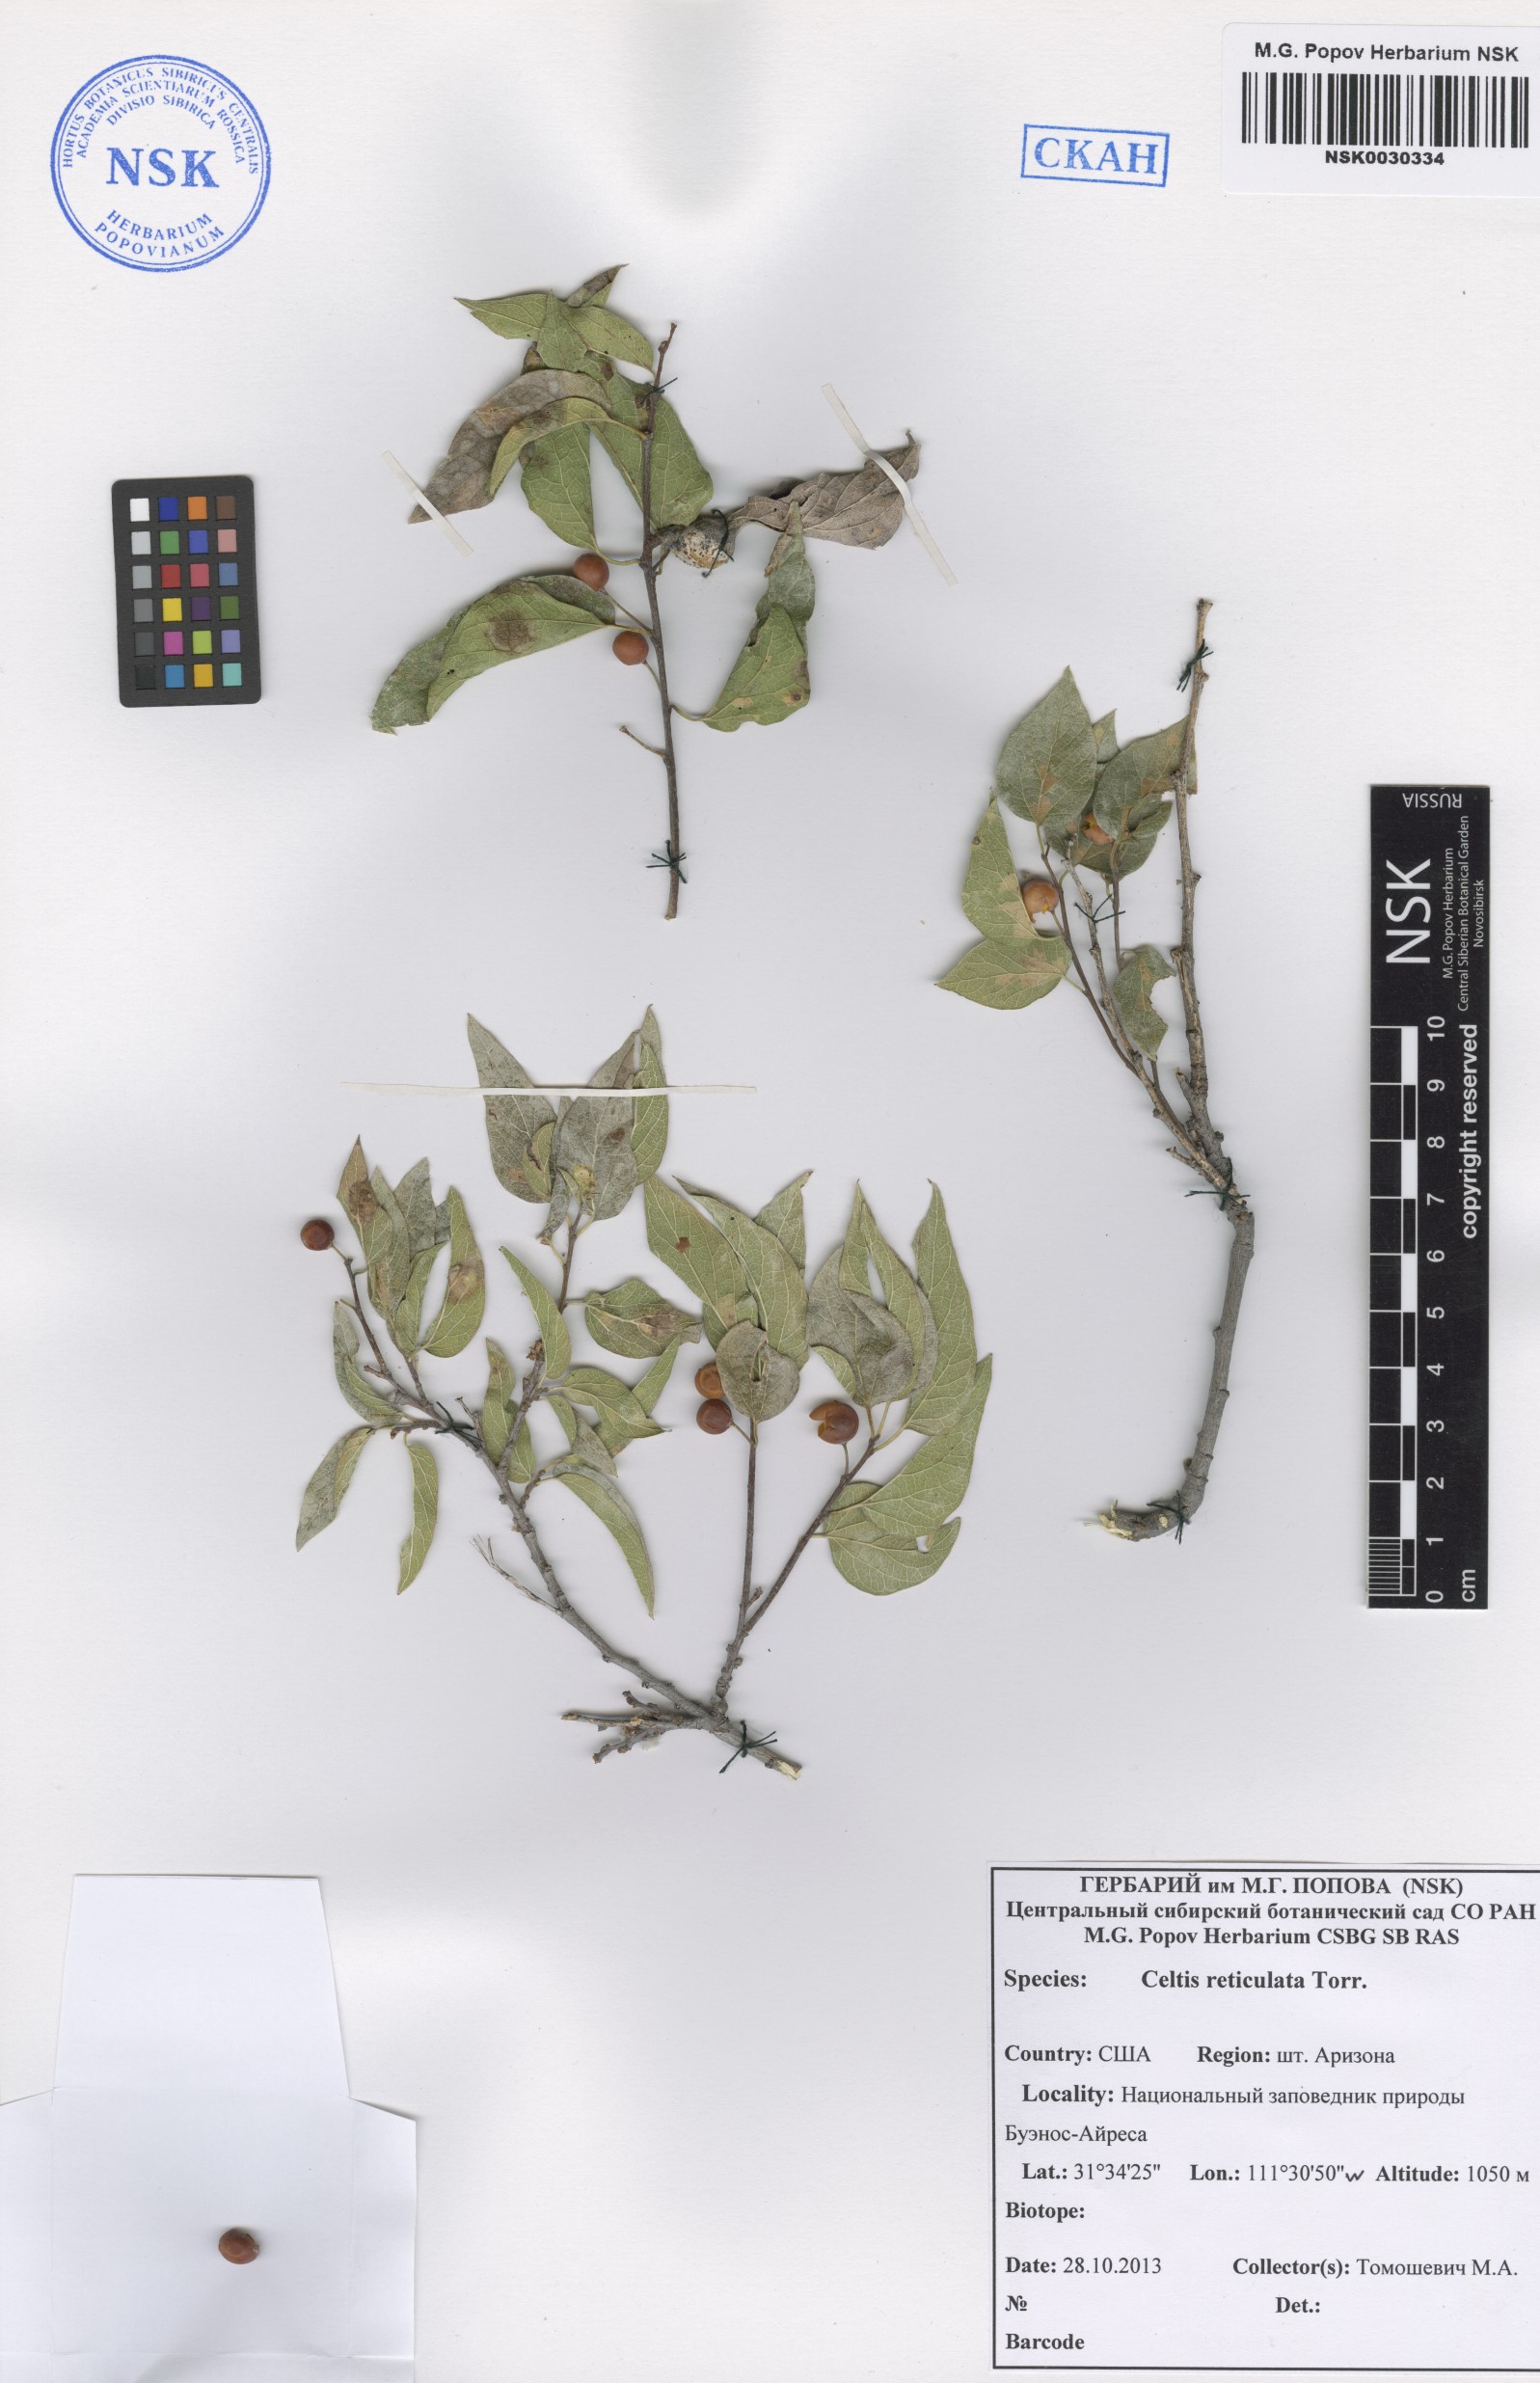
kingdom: Plantae
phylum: Tracheophyta
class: Magnoliopsida
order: Rosales
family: Cannabaceae
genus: Celtis
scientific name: Celtis reticulata
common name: Netleaf hackberry
